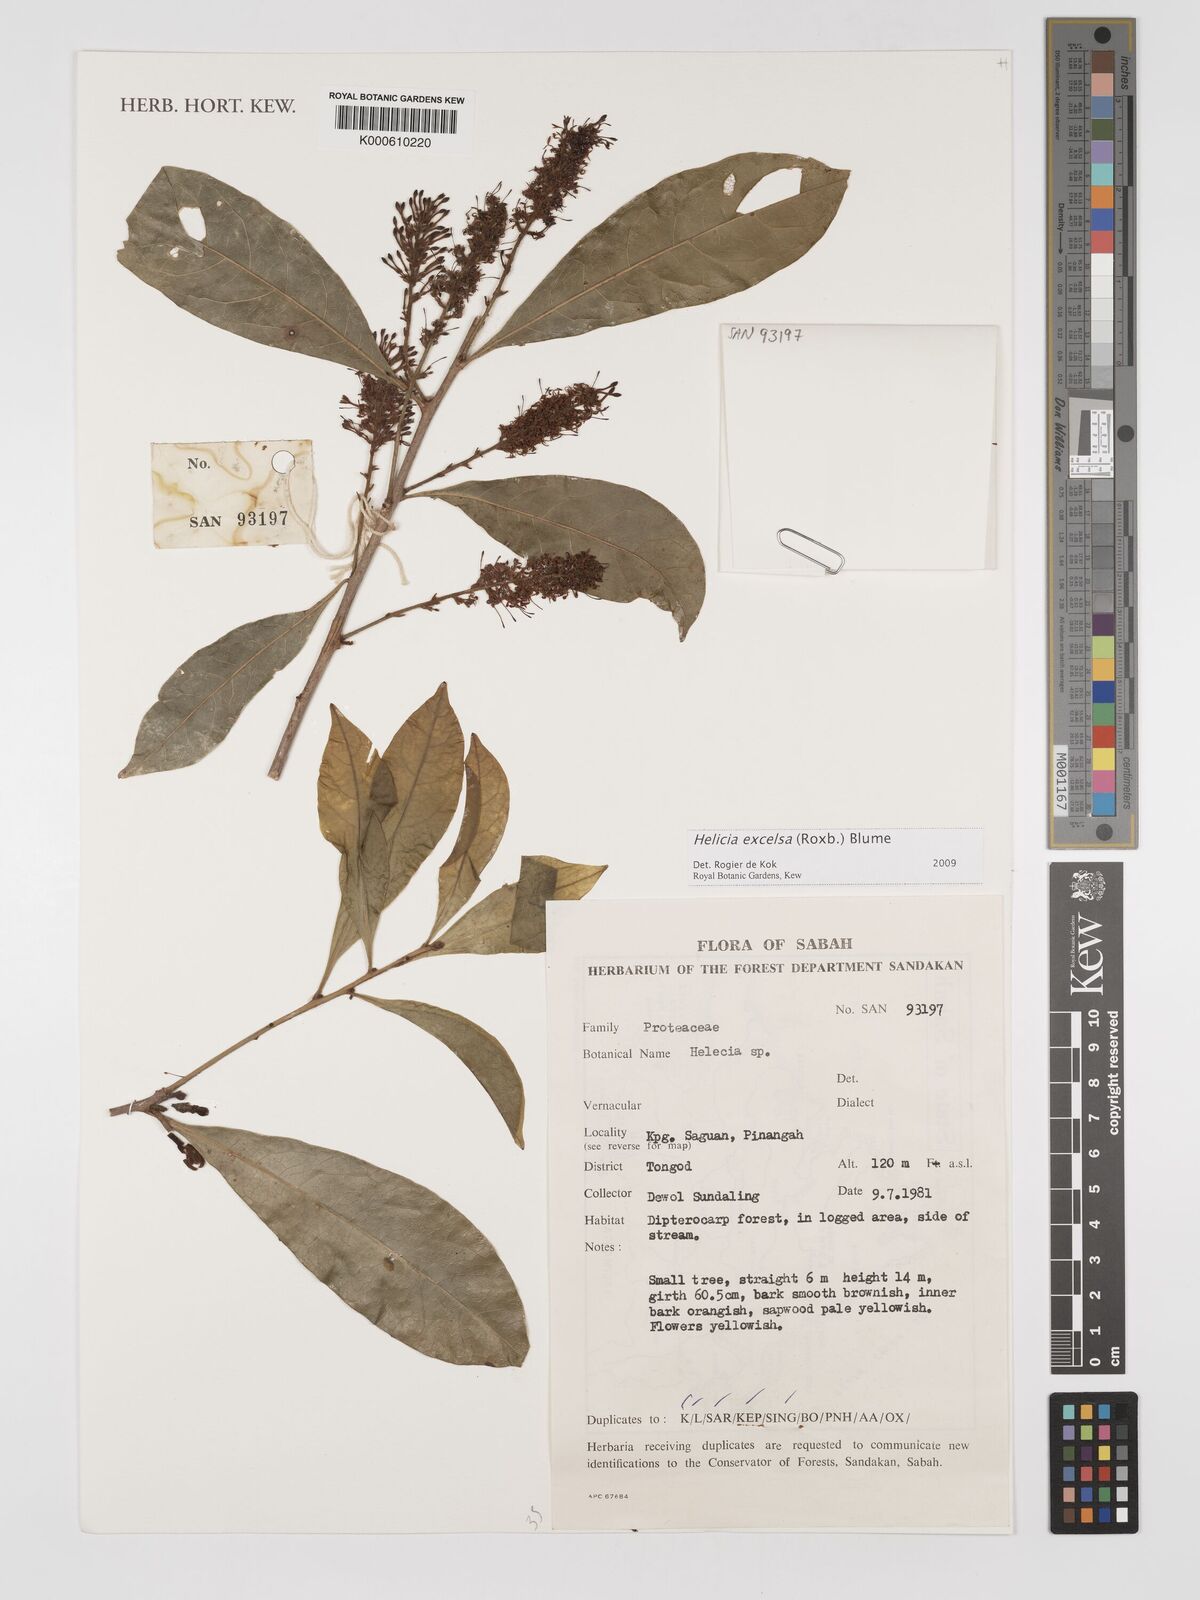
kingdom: Plantae
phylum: Tracheophyta
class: Magnoliopsida
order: Proteales
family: Proteaceae
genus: Helicia
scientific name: Helicia excelsa
